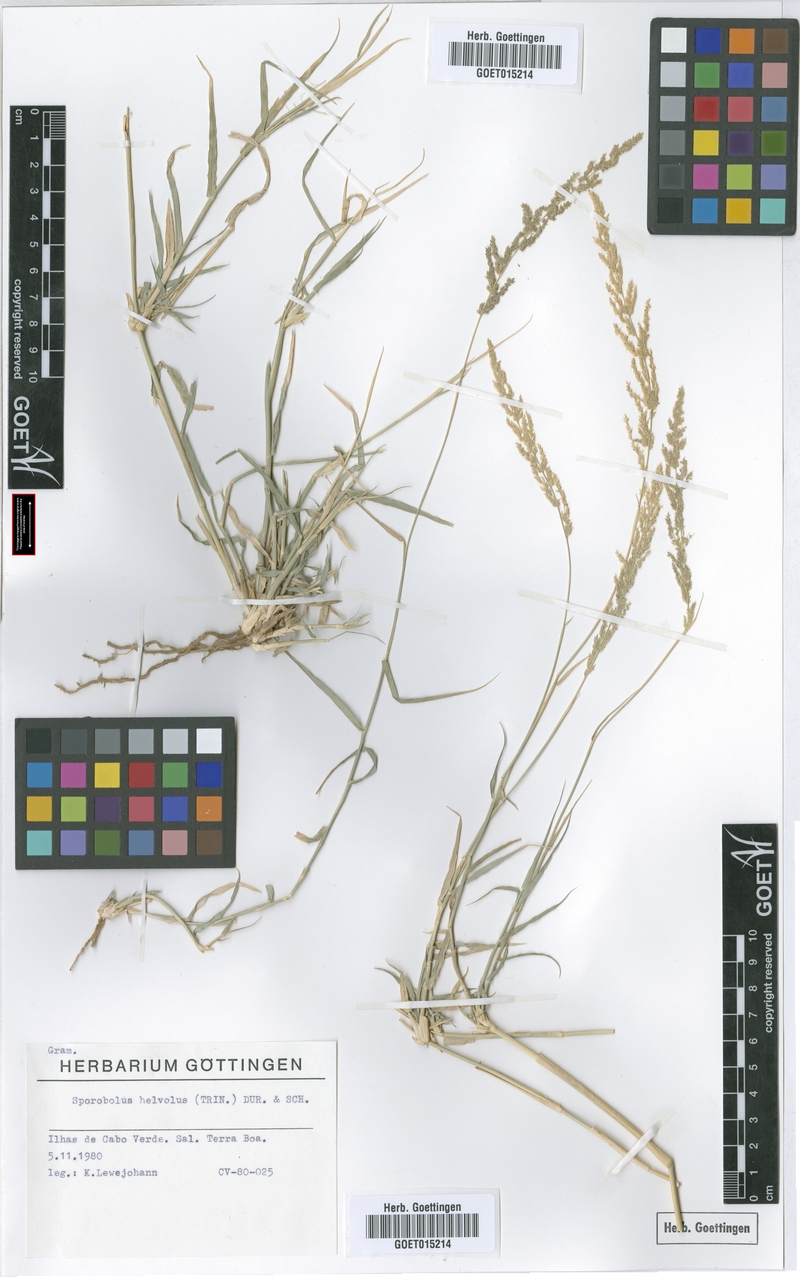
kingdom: Plantae
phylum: Tracheophyta
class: Liliopsida
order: Poales
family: Poaceae
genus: Sporobolus
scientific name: Sporobolus helvolus
